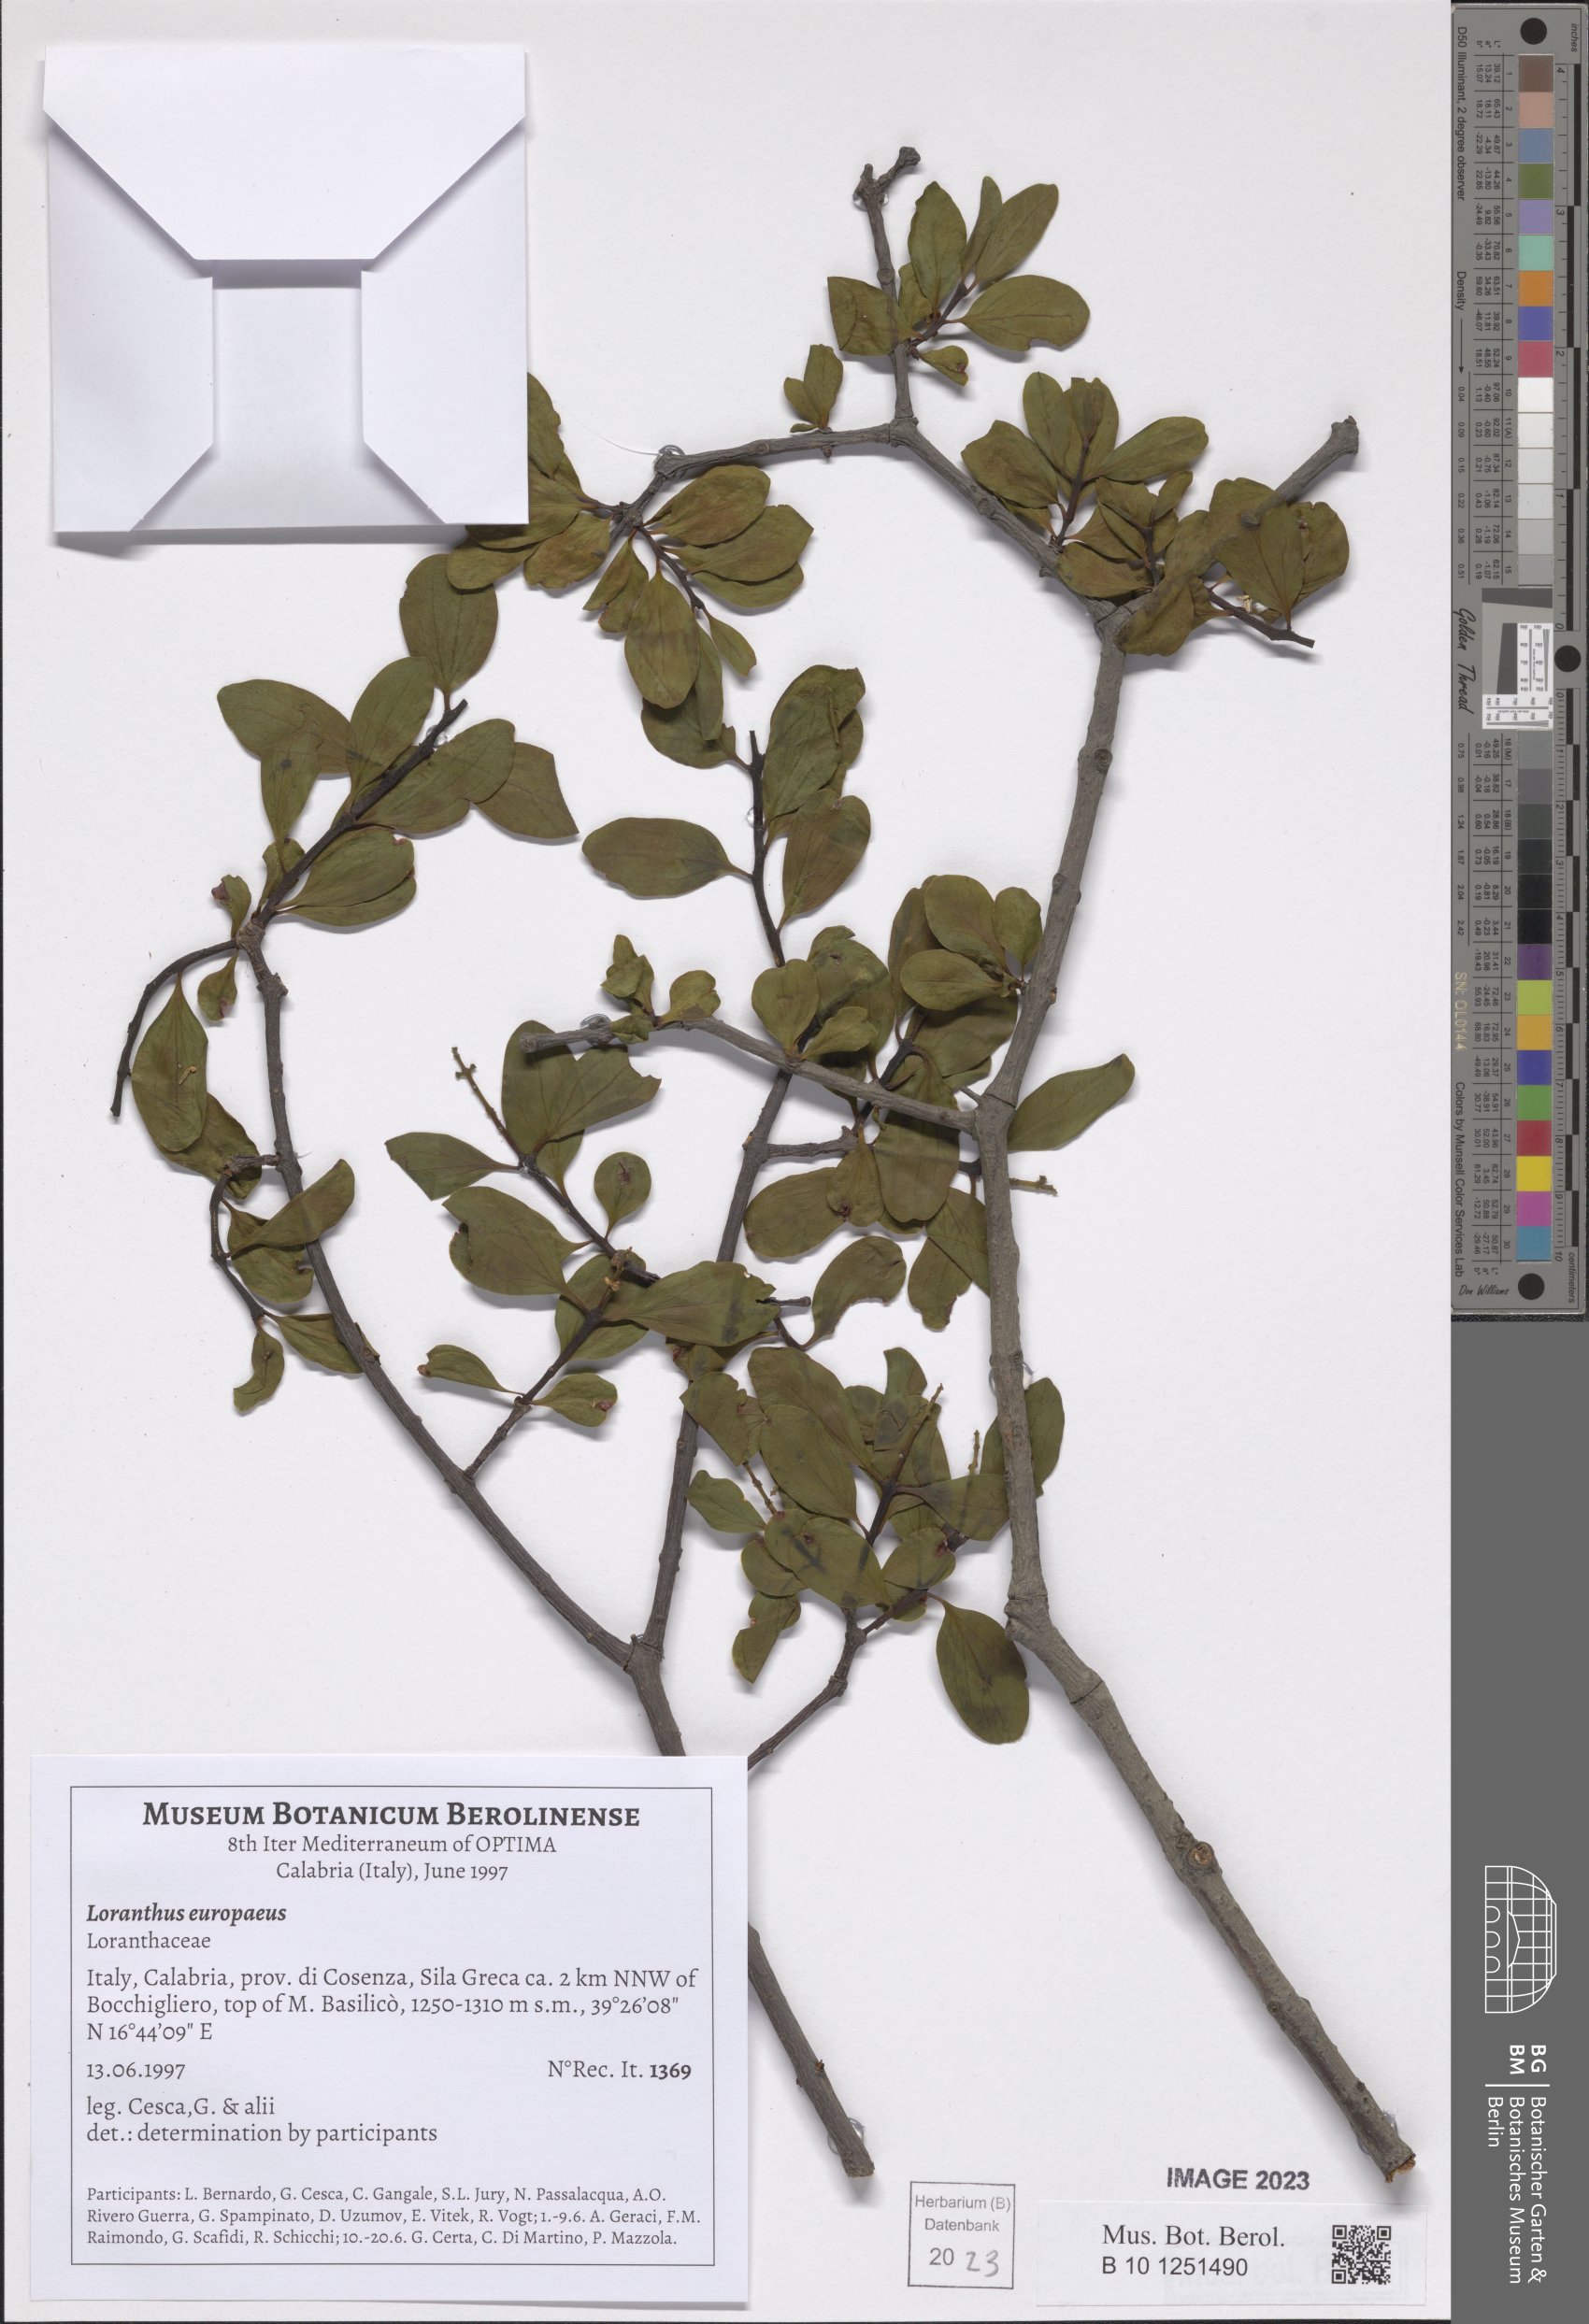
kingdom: Plantae
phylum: Tracheophyta
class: Magnoliopsida
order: Santalales
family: Loranthaceae
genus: Loranthus
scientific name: Loranthus europaeus
